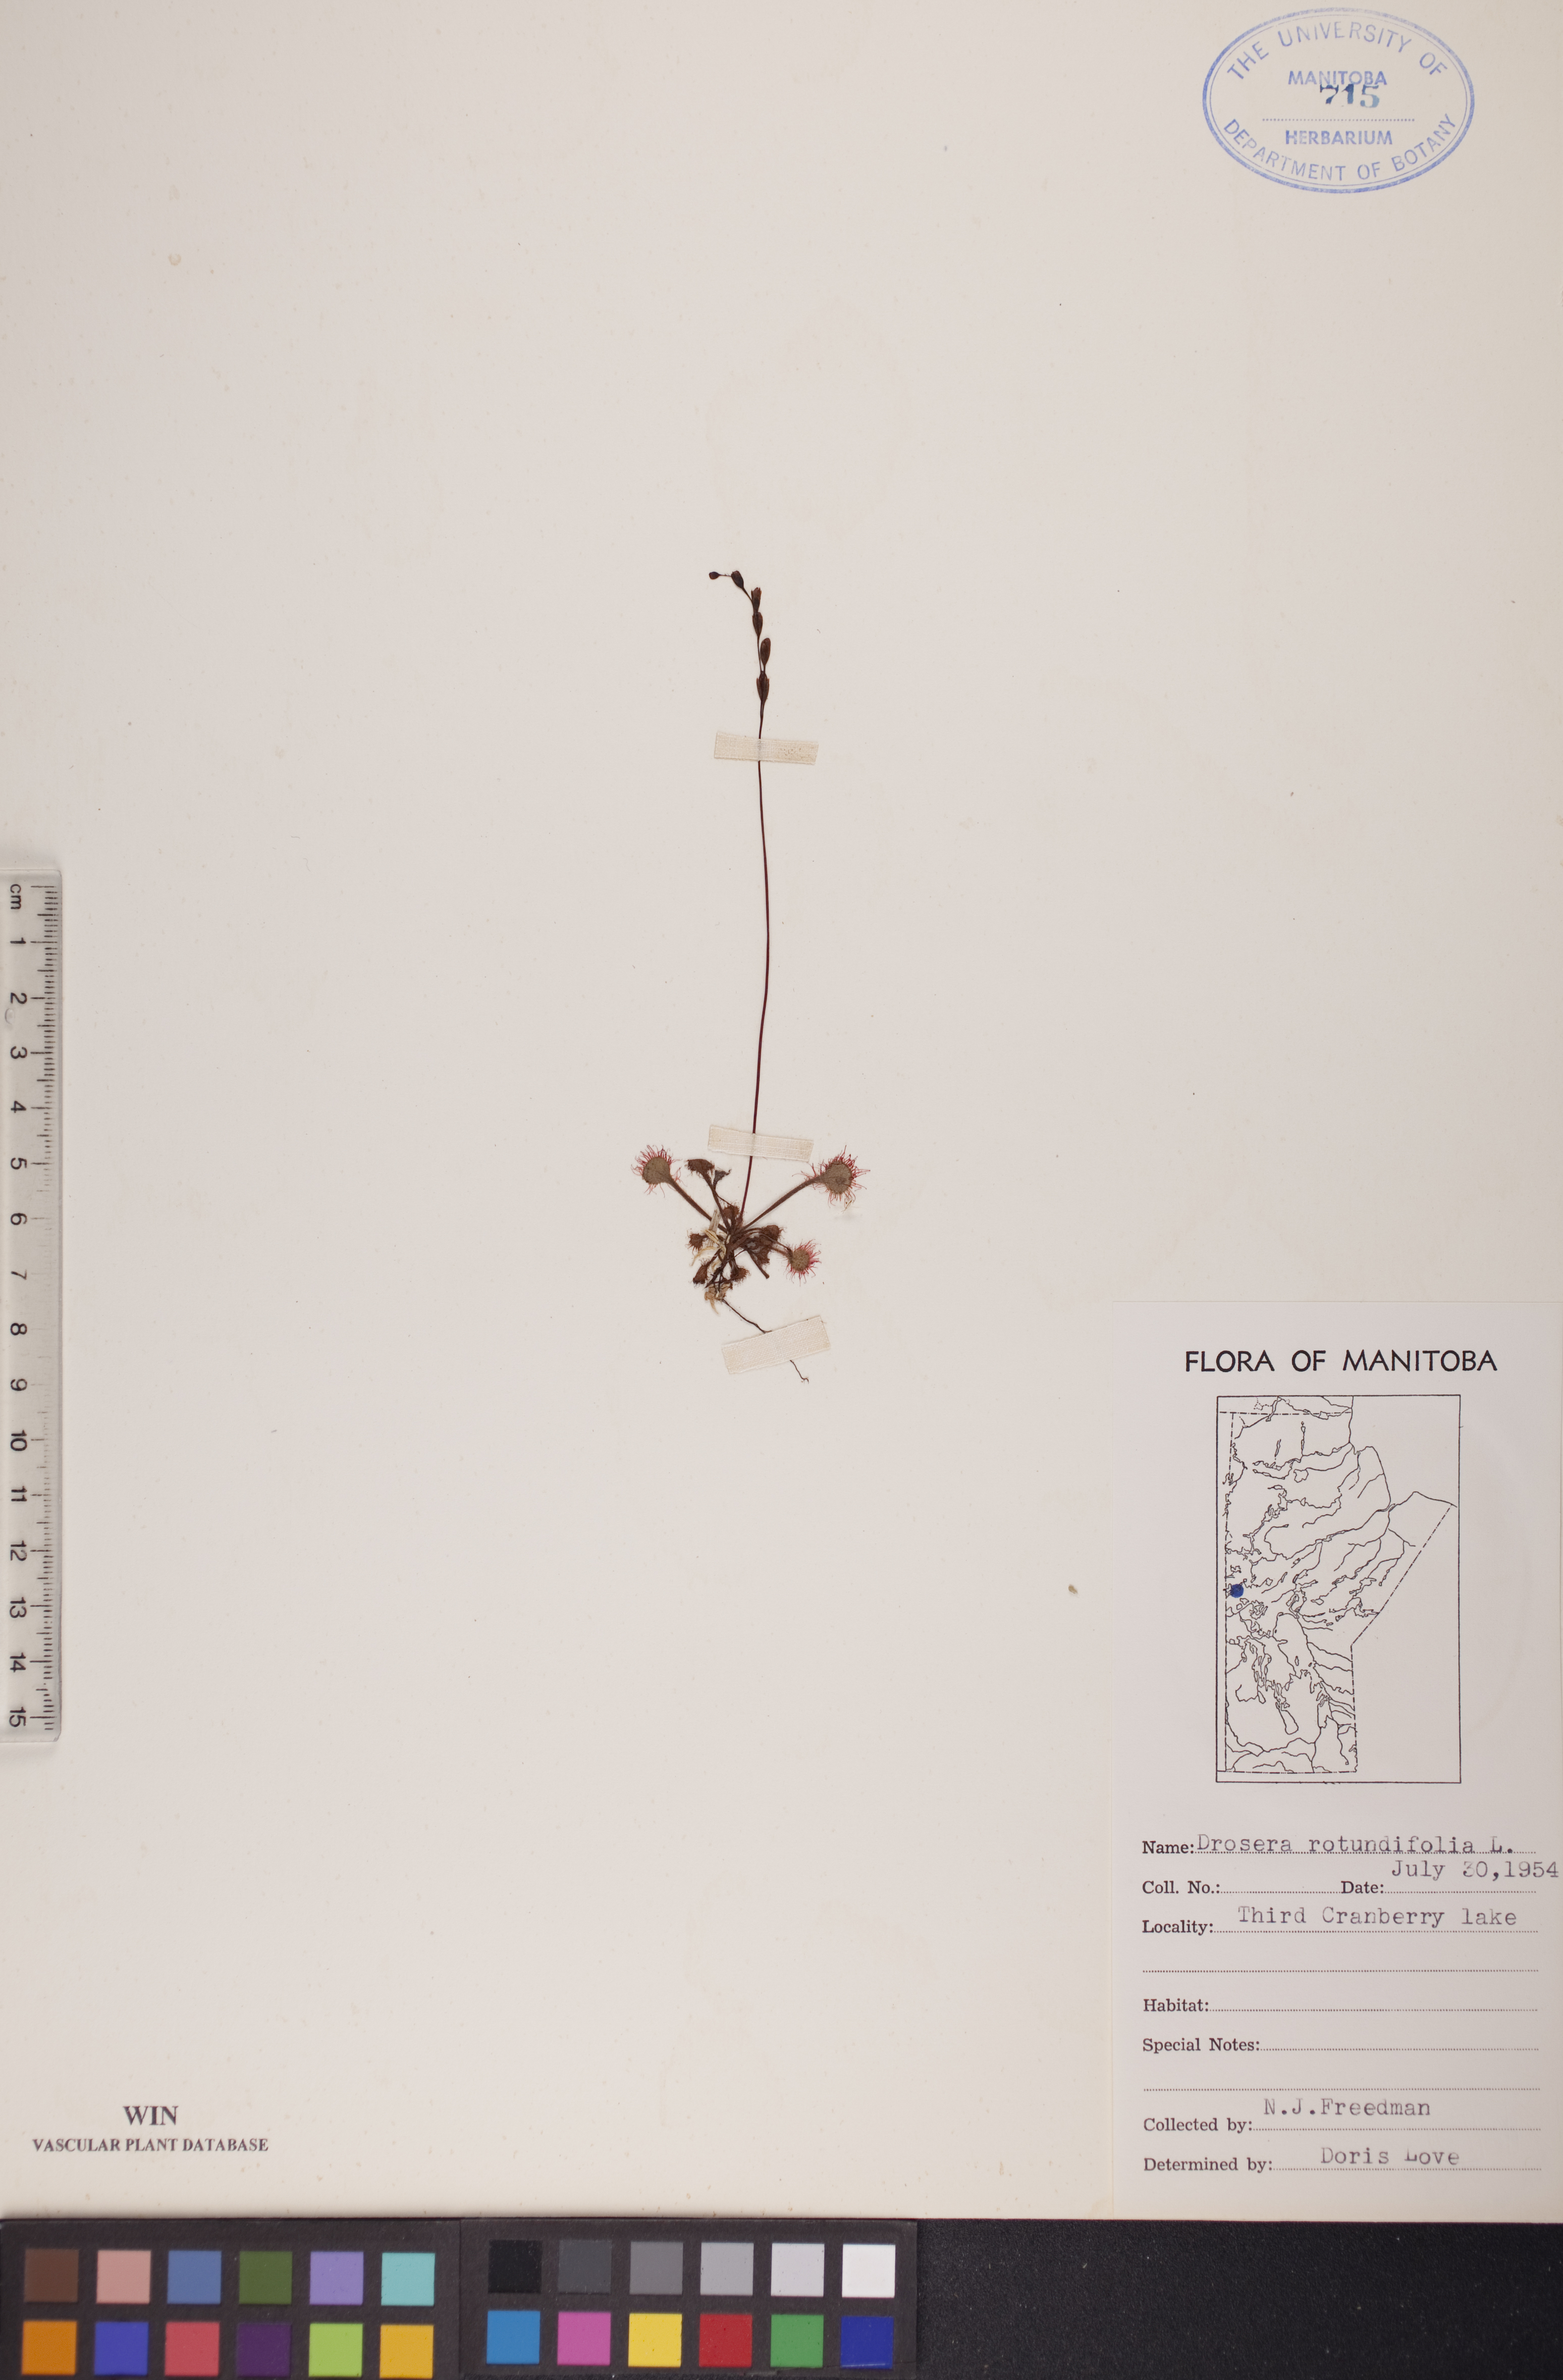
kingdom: Plantae
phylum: Tracheophyta
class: Magnoliopsida
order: Caryophyllales
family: Droseraceae
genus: Drosera
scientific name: Drosera rotundifolia
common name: Round-leaved sundew
